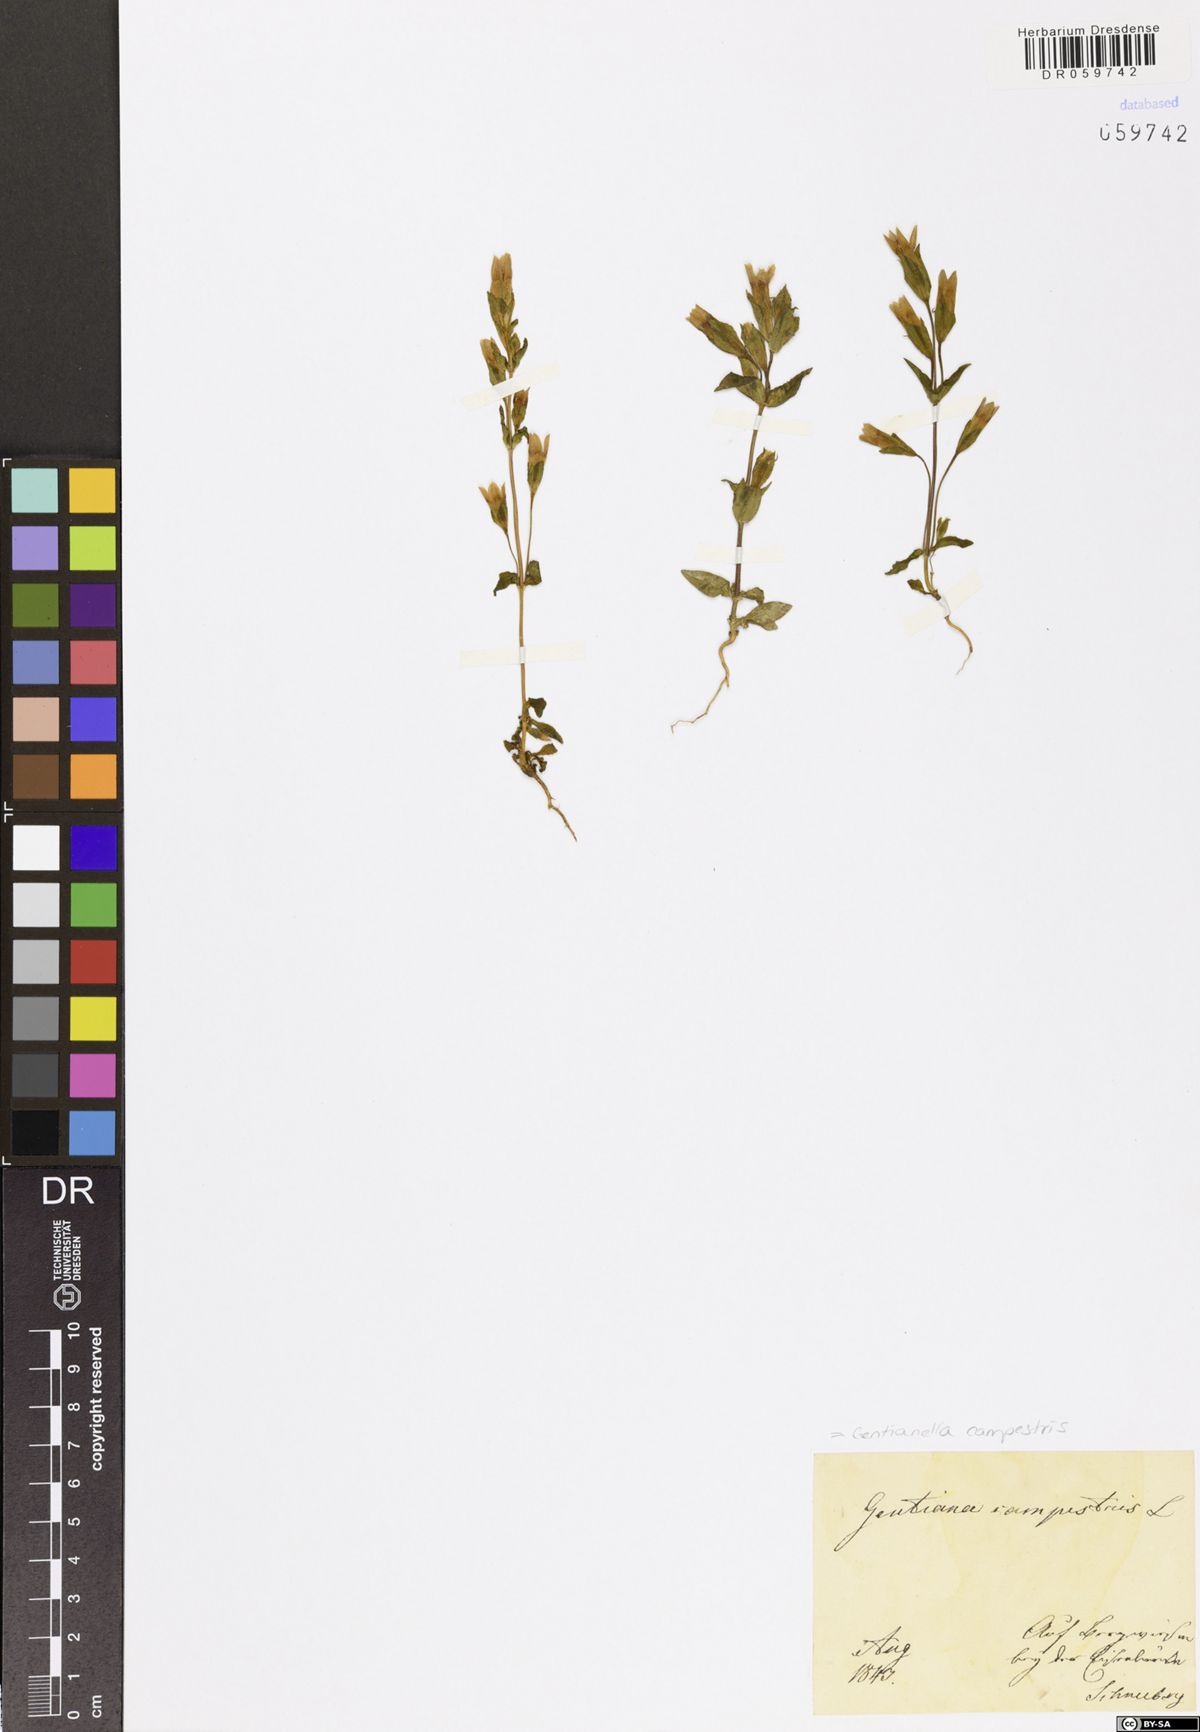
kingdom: Plantae
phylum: Tracheophyta
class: Magnoliopsida
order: Gentianales
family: Gentianaceae
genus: Gentianella
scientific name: Gentianella campestris
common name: Field gentian
